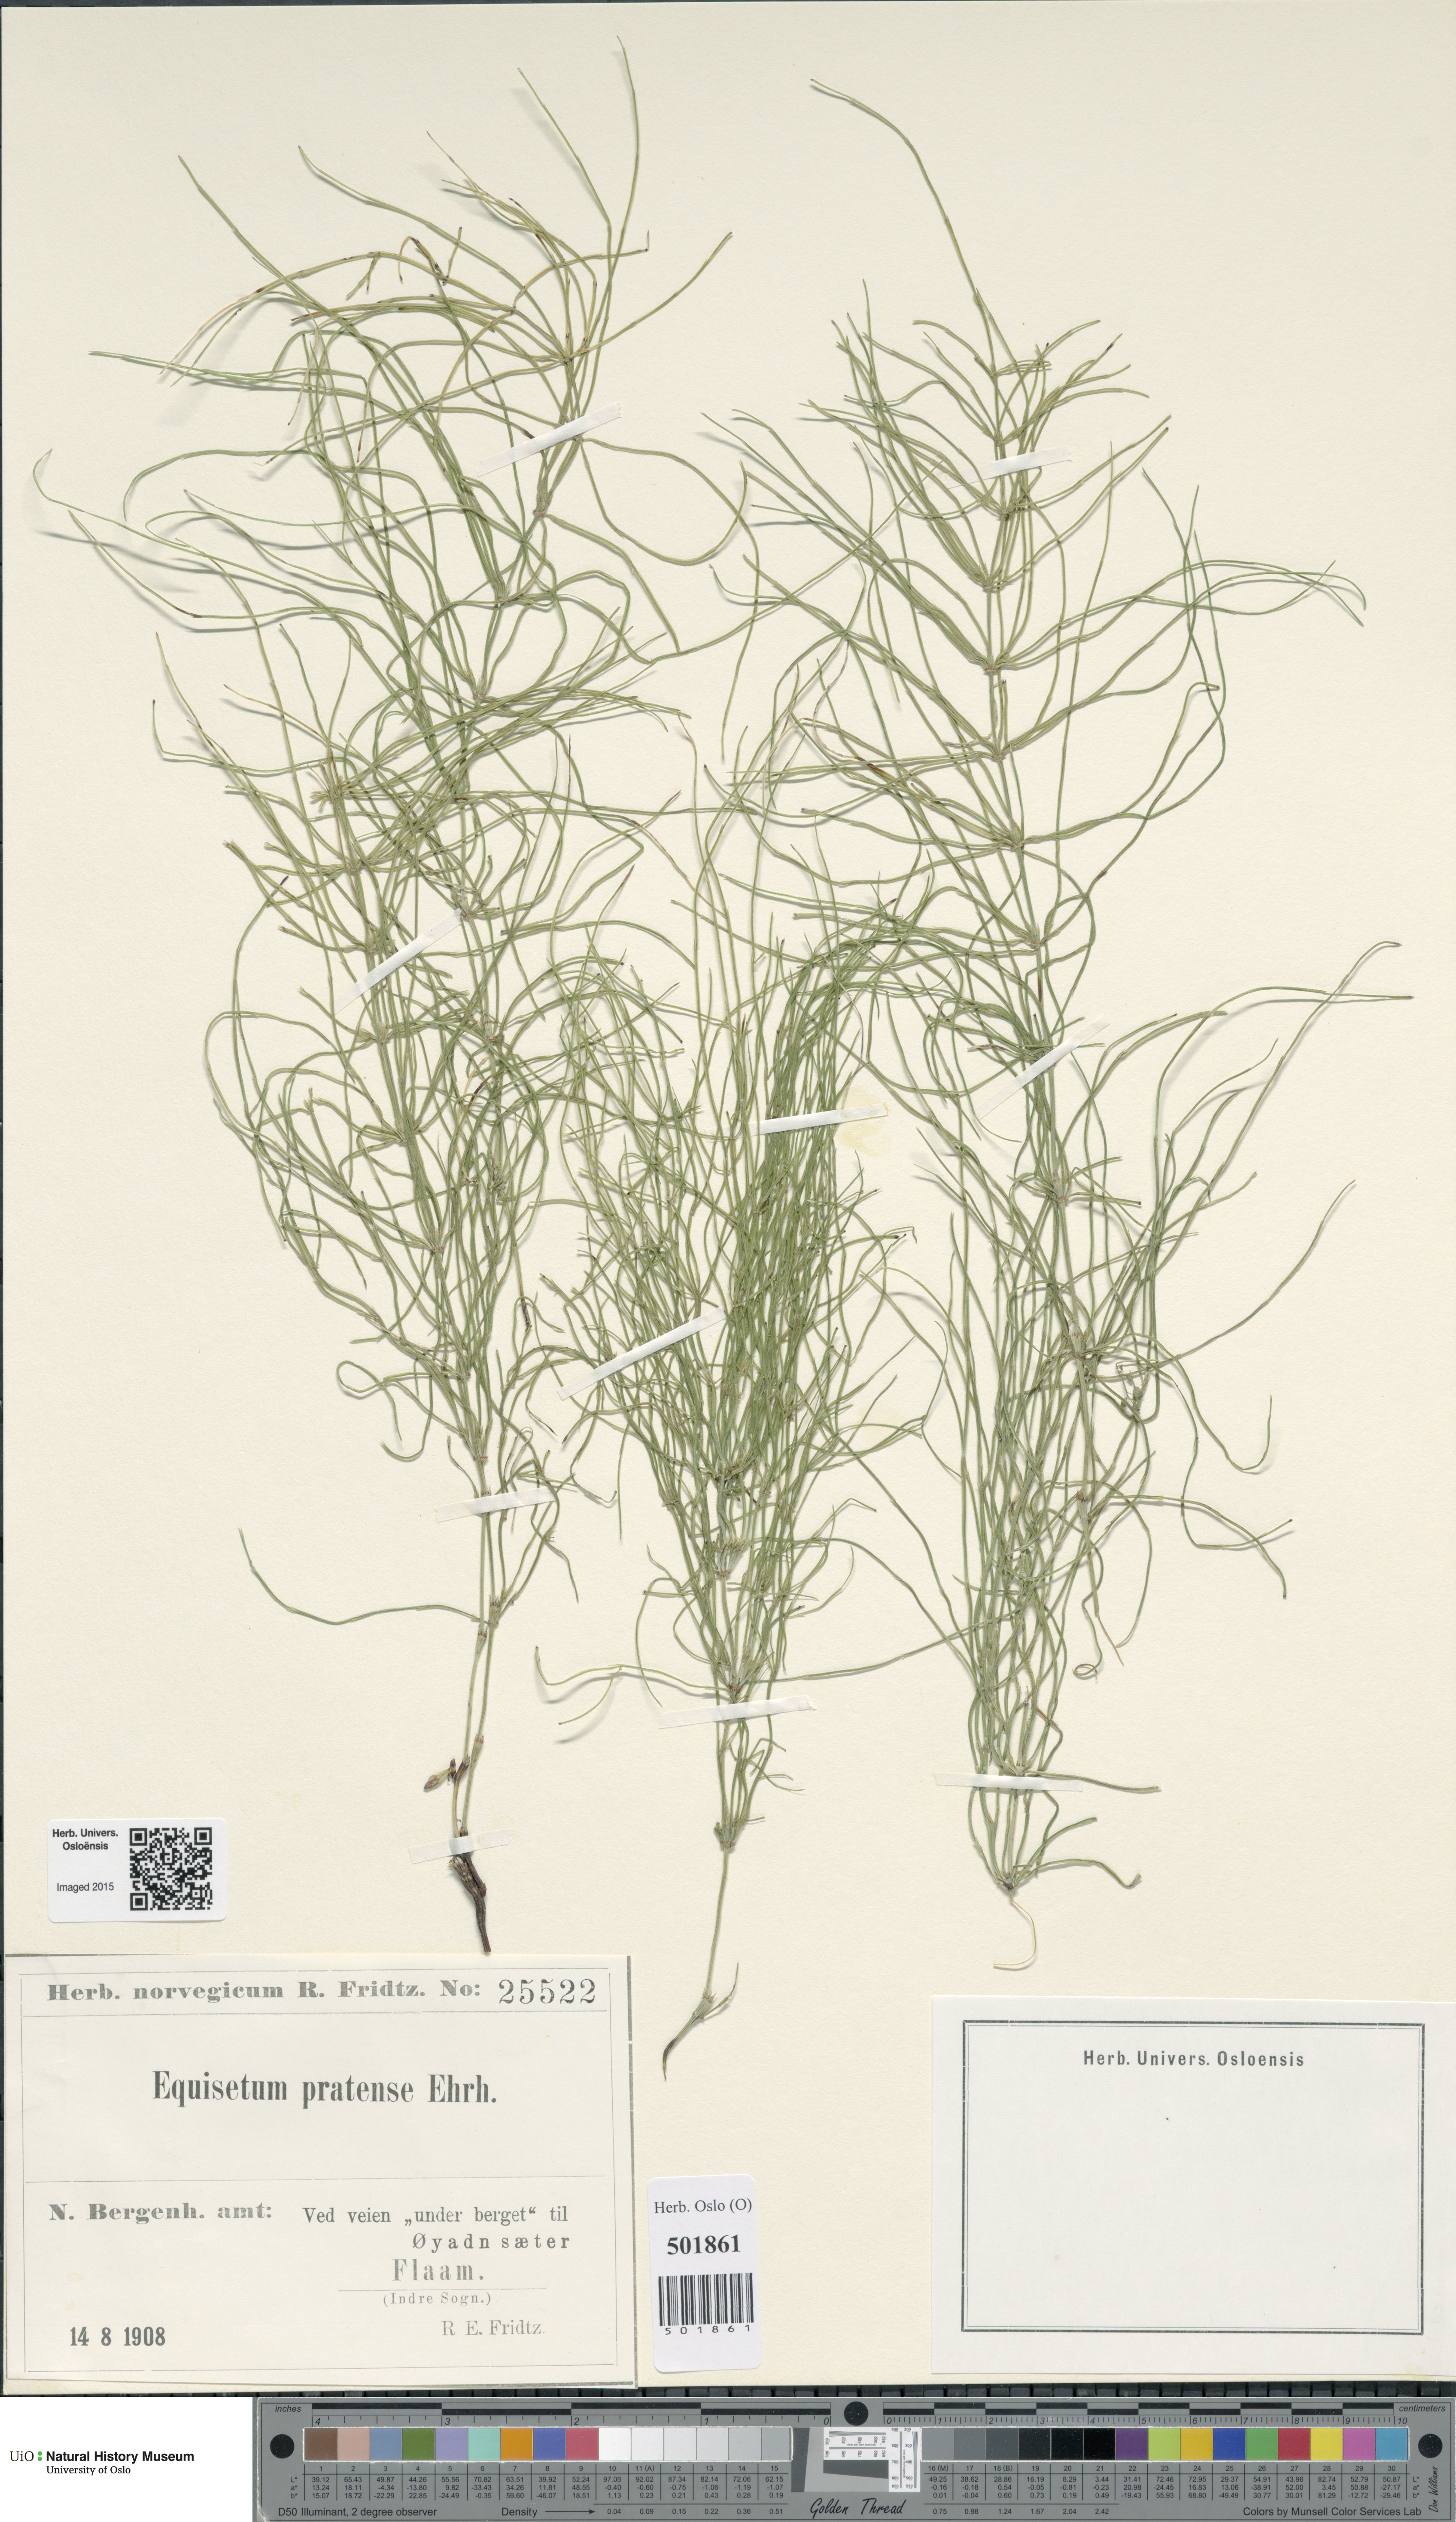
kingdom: Plantae
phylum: Tracheophyta
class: Polypodiopsida
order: Equisetales
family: Equisetaceae
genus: Equisetum
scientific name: Equisetum pratense
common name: Meadow horsetail
